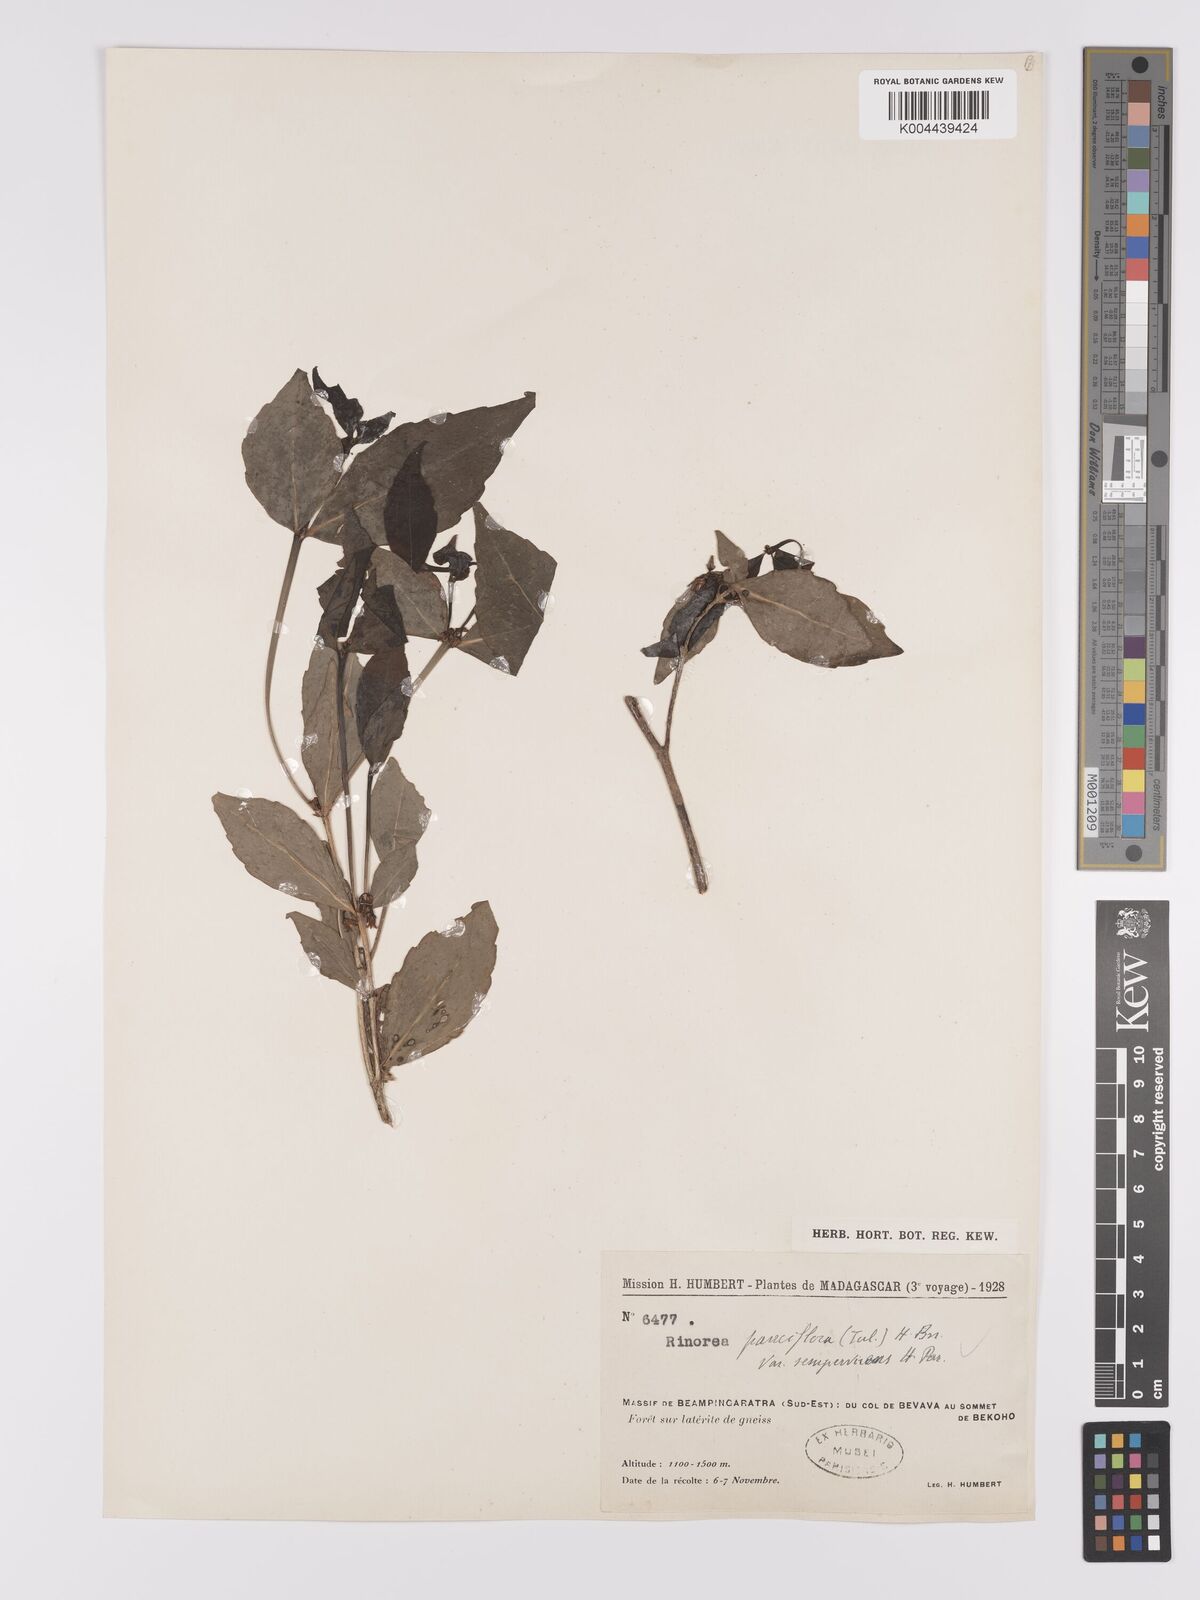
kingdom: Plantae
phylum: Tracheophyta
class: Magnoliopsida
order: Malpighiales
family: Violaceae
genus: Rinorea
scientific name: Rinorea pauciflora
